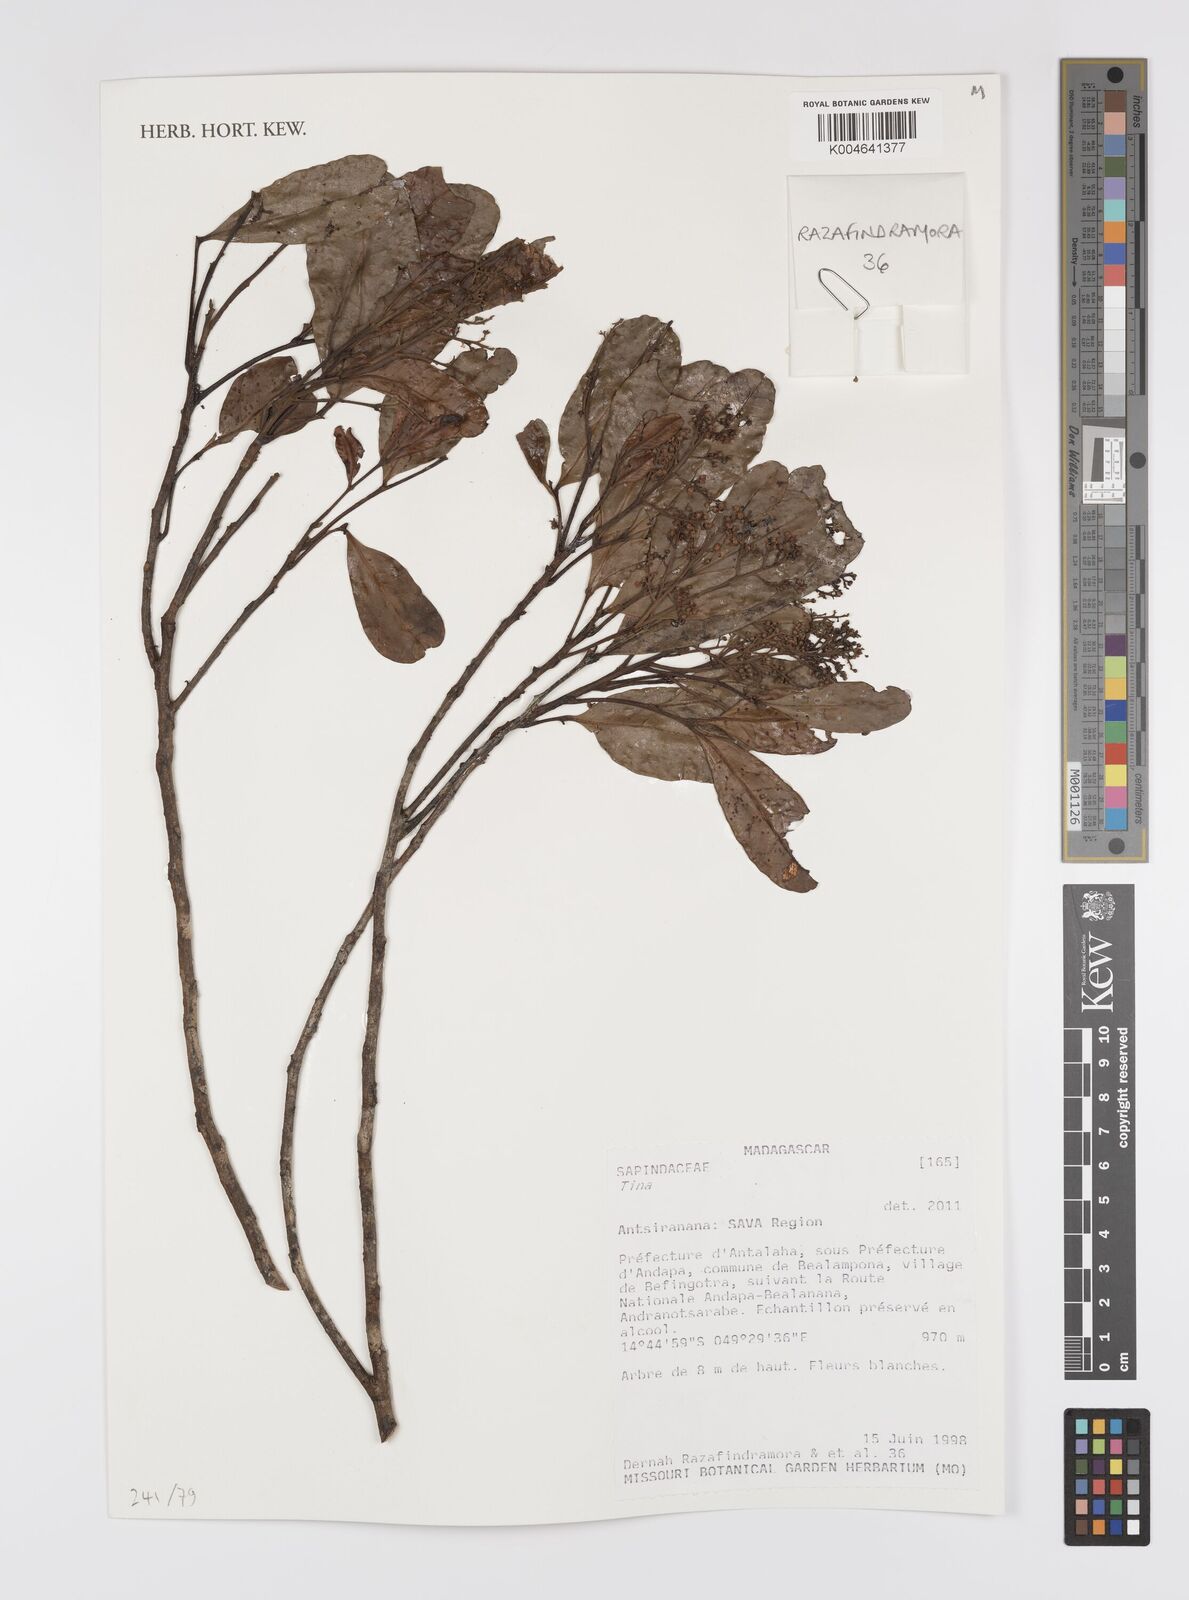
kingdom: Plantae
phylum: Tracheophyta
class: Magnoliopsida
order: Sapindales
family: Sapindaceae
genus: Tina
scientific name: Tina
